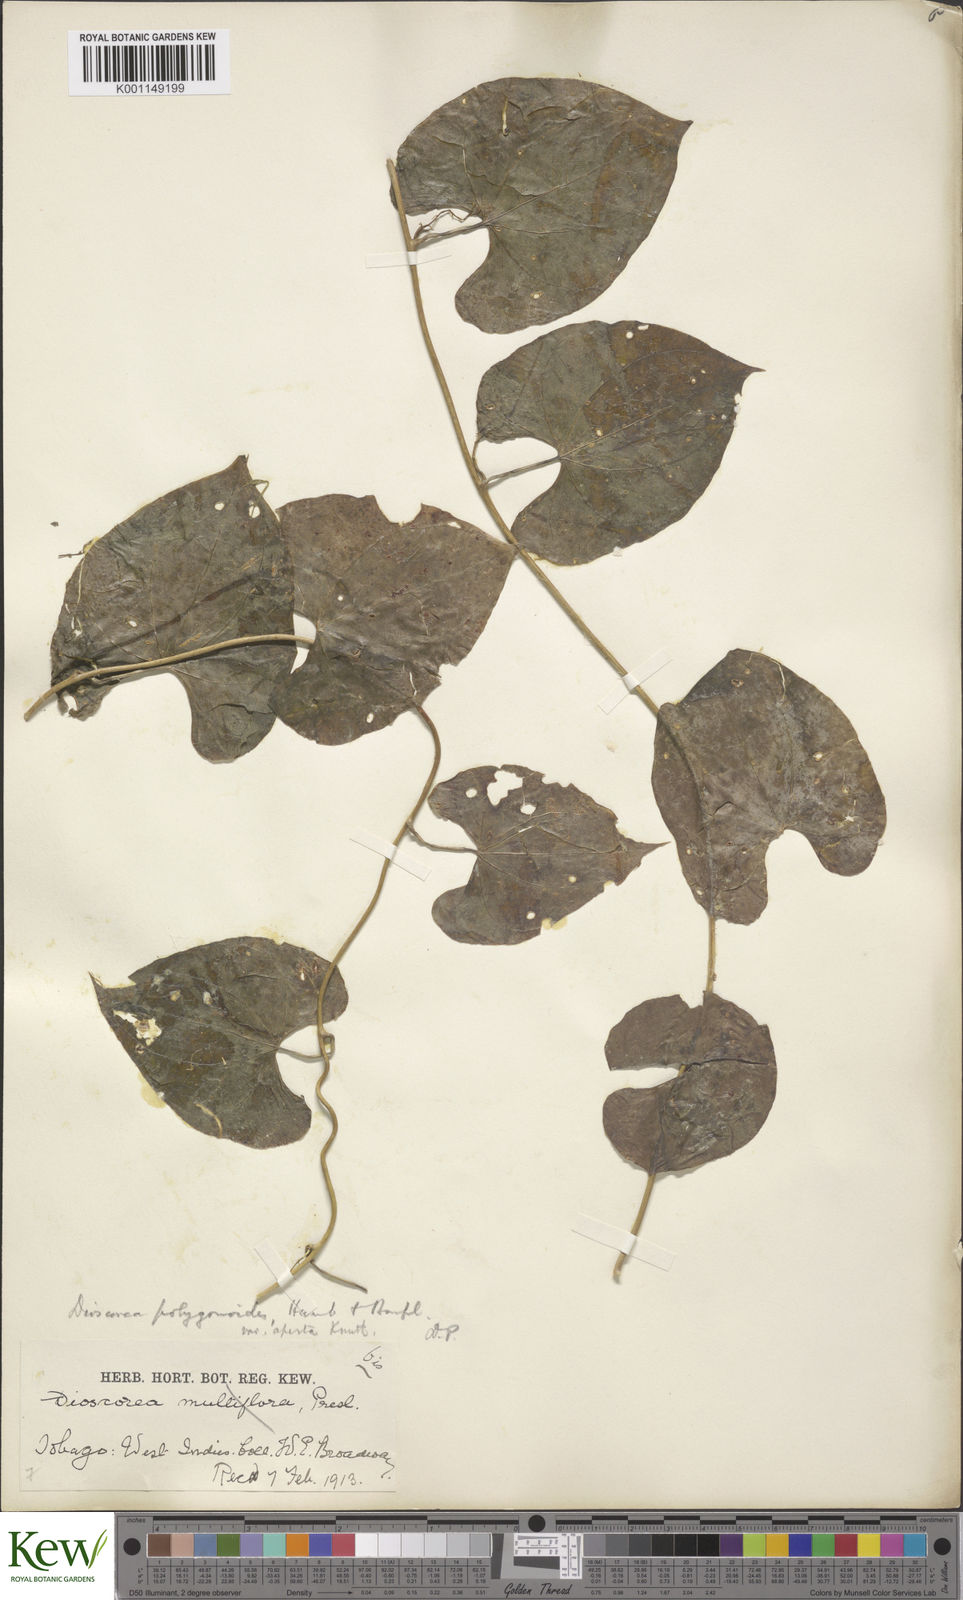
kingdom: Plantae
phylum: Tracheophyta
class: Liliopsida
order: Dioscoreales
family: Dioscoreaceae
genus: Dioscorea
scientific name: Dioscorea polygonoides
